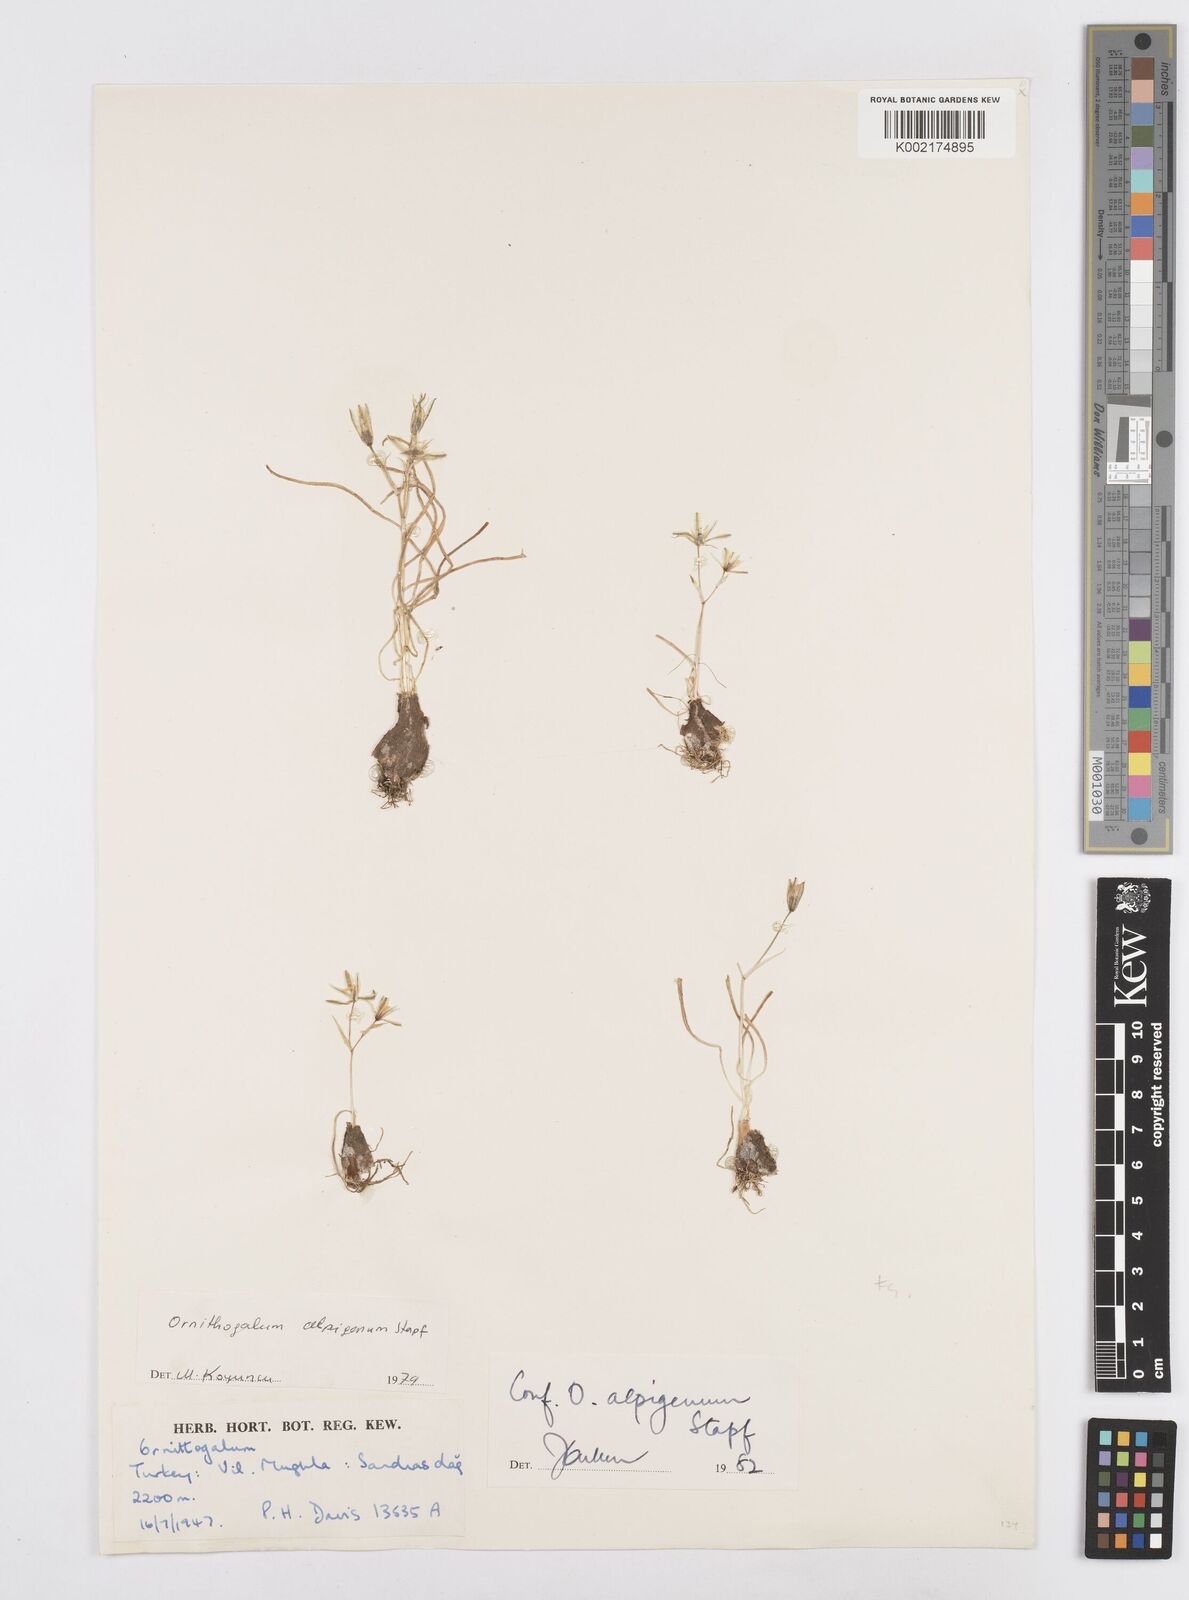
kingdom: Plantae
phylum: Tracheophyta
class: Liliopsida
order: Asparagales
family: Asparagaceae
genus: Ornithogalum
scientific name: Ornithogalum alpigenum
